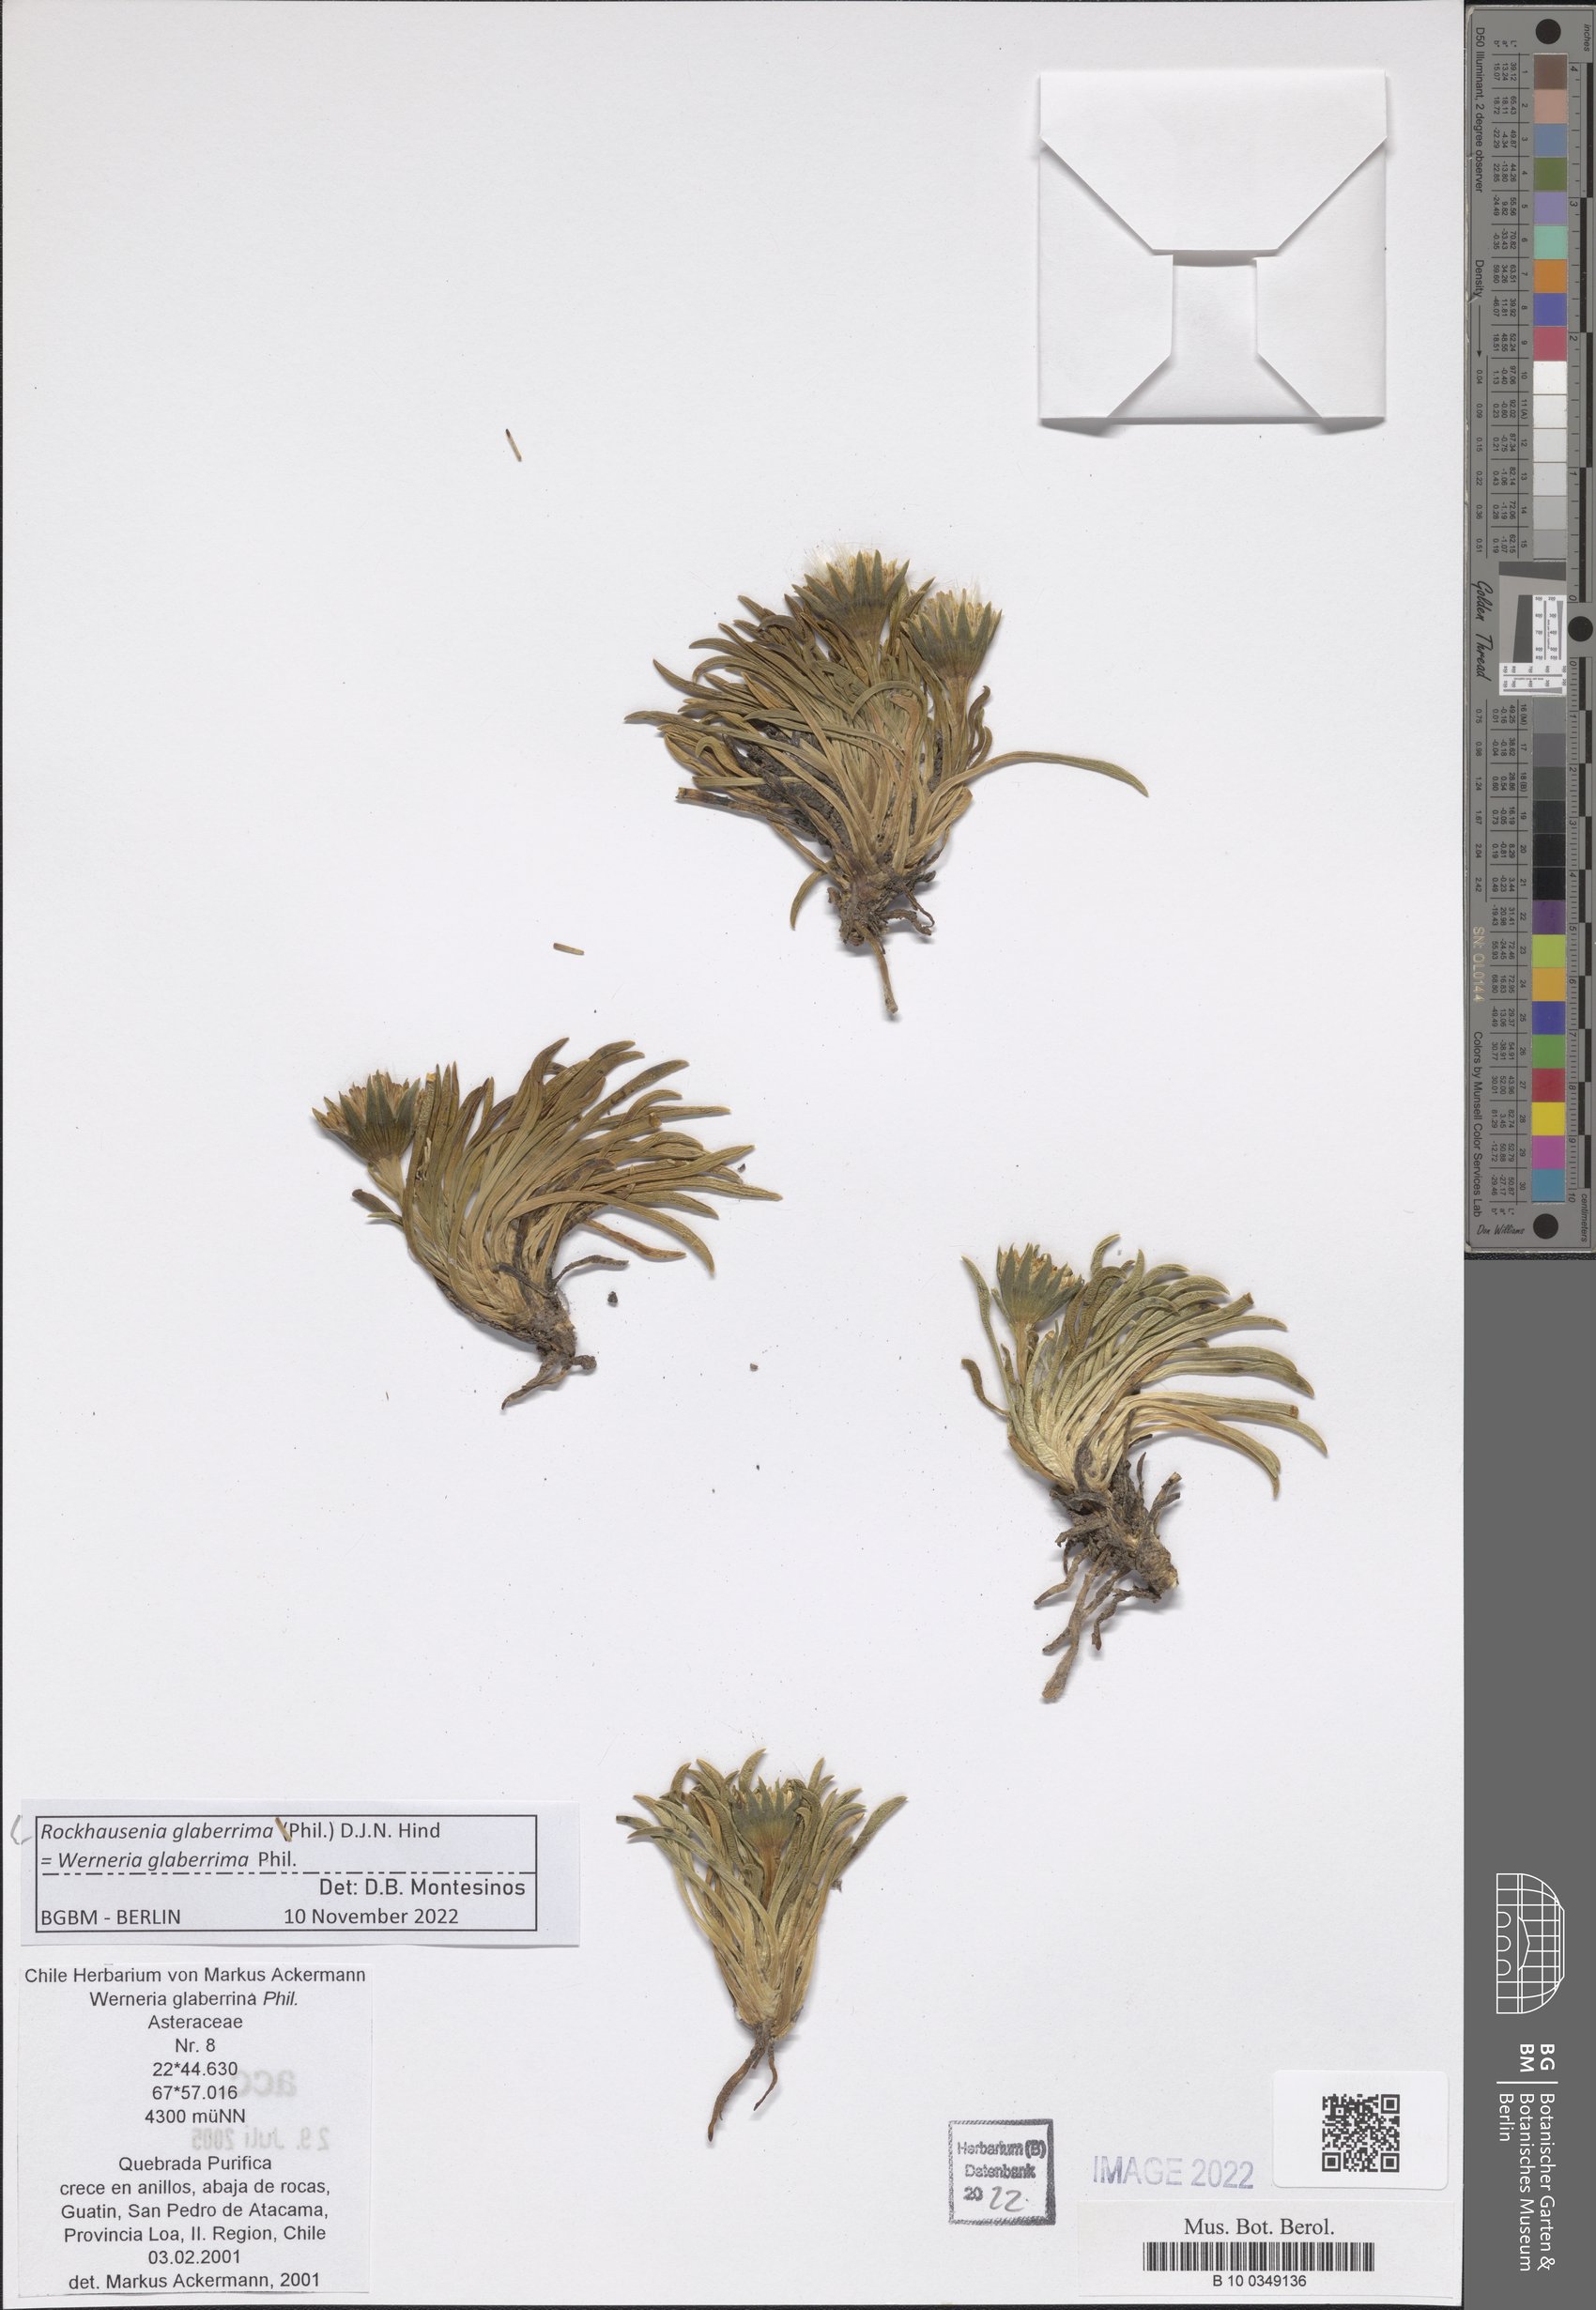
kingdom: Plantae
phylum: Tracheophyta
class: Magnoliopsida
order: Asterales
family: Asteraceae
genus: Rockhausenia
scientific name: Rockhausenia glaberrima
